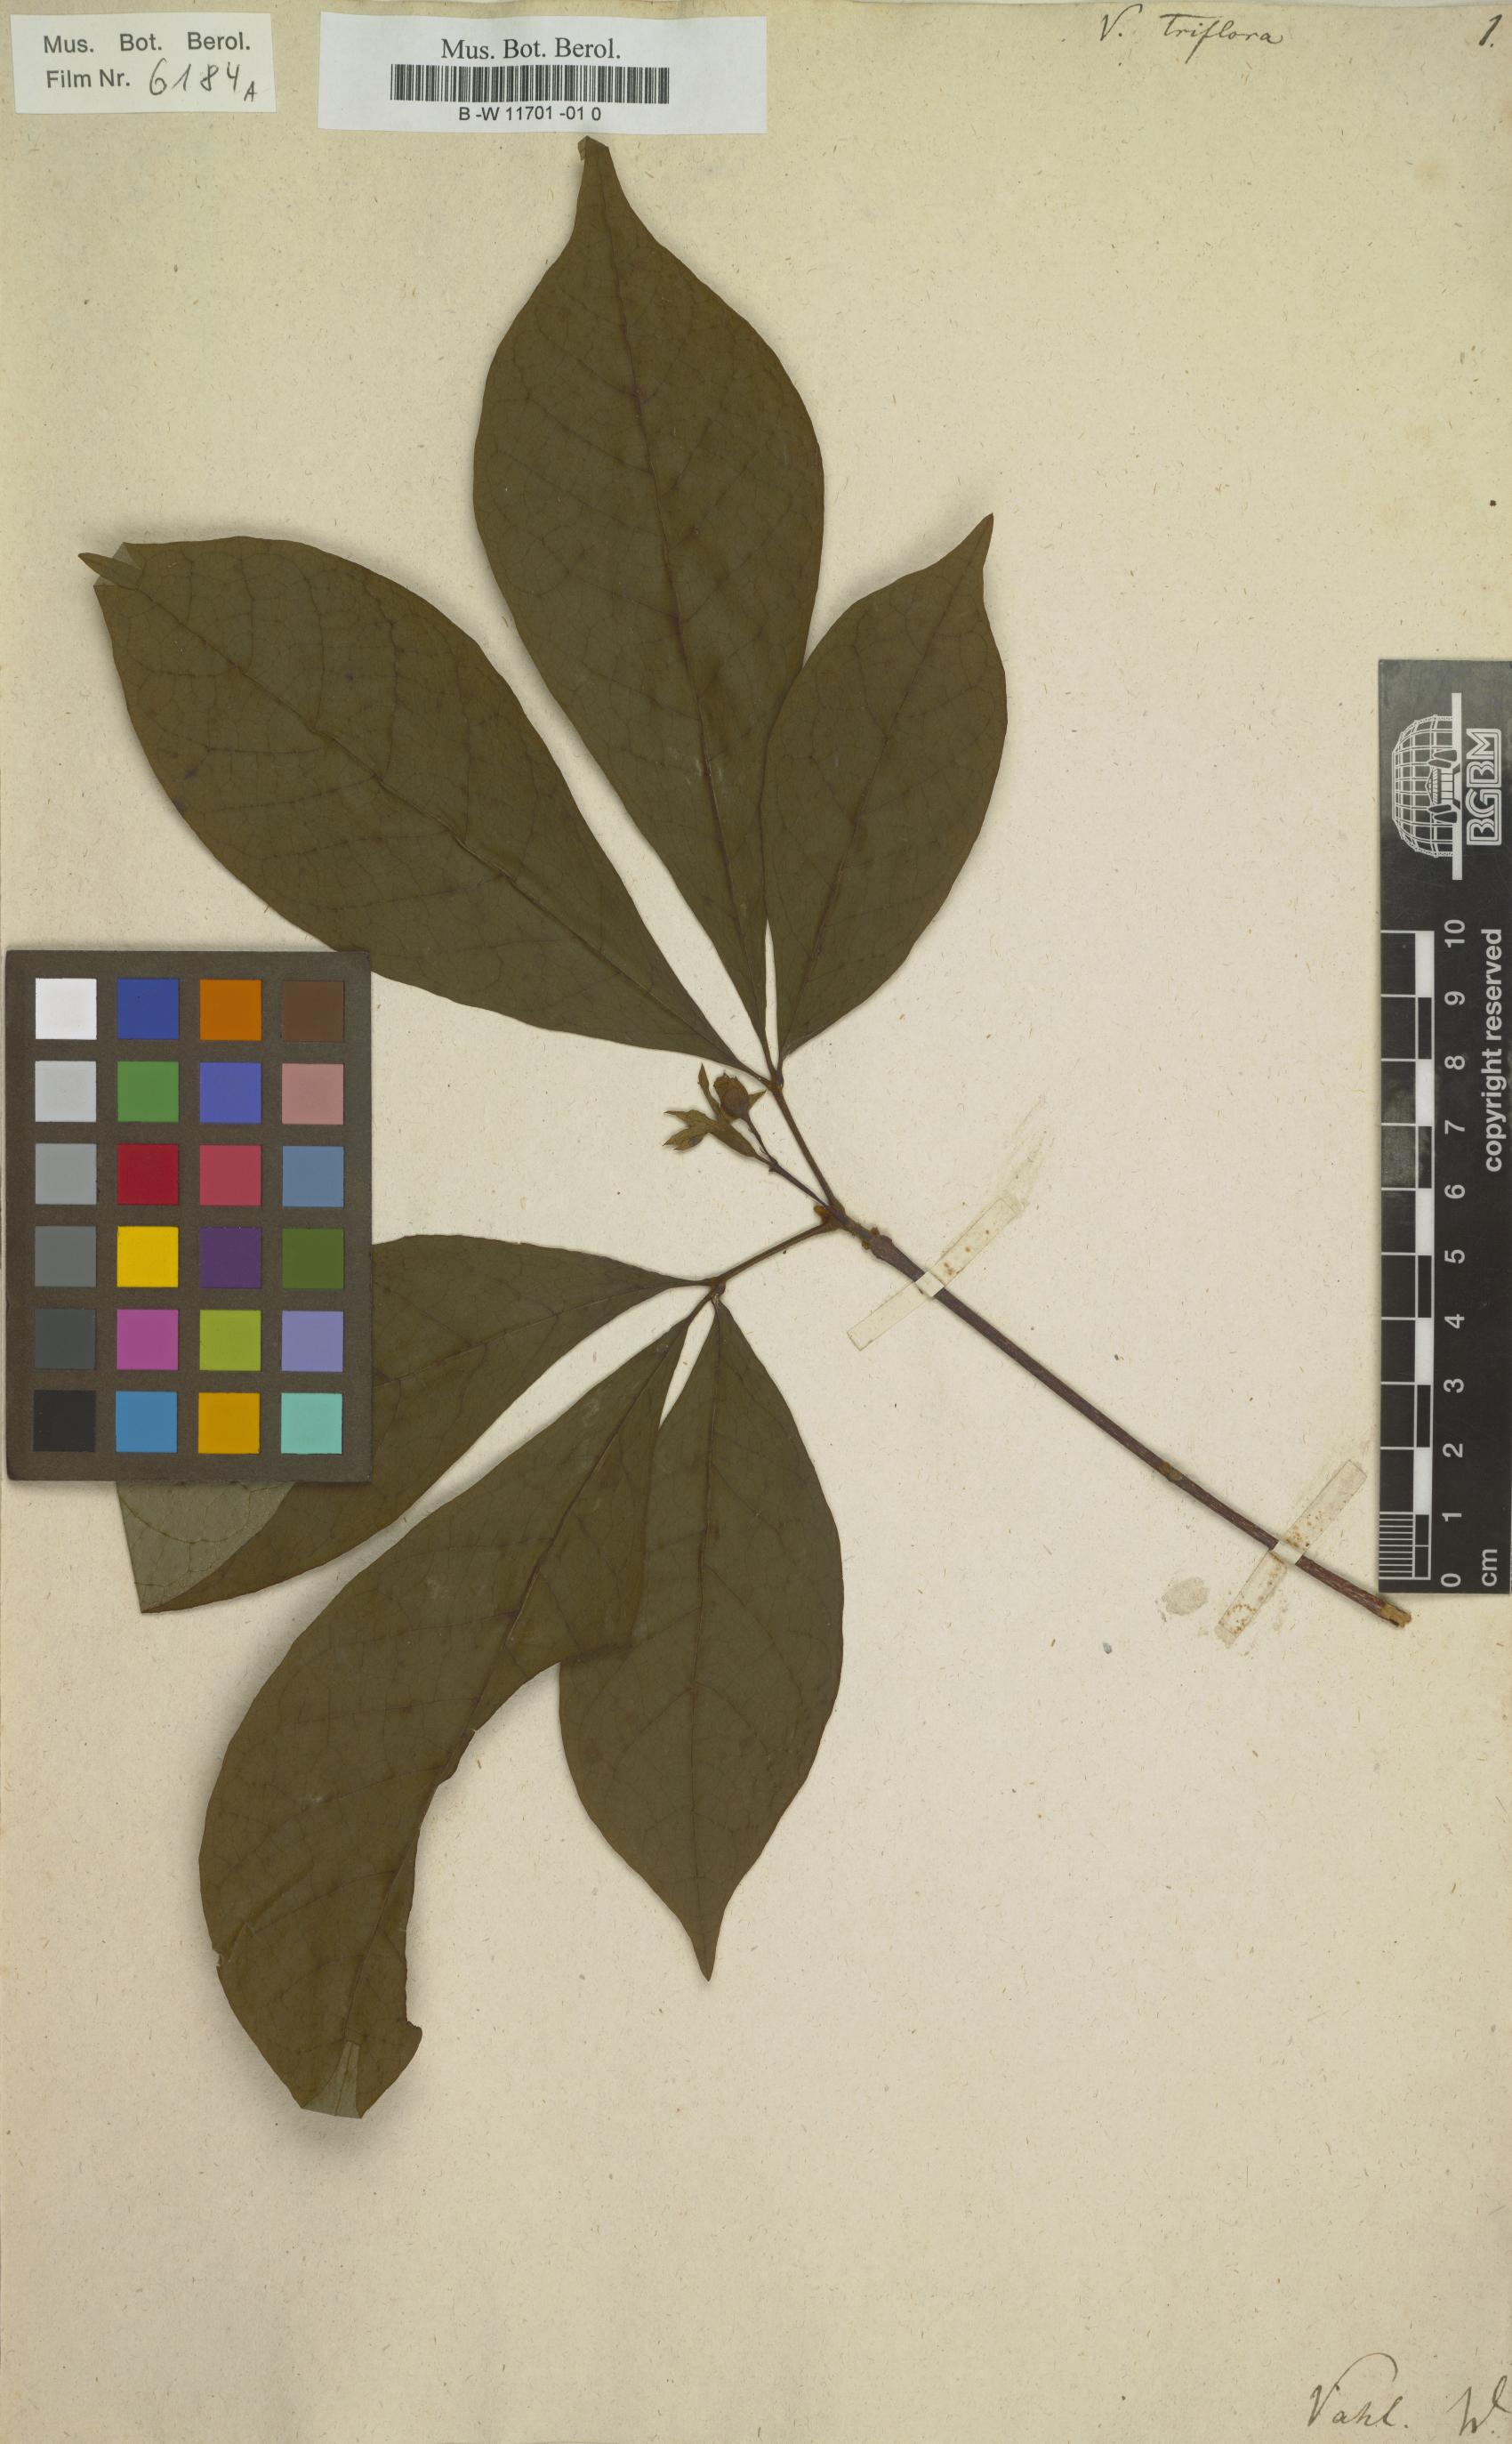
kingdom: Plantae
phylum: Tracheophyta
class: Magnoliopsida
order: Lamiales
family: Lamiaceae
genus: Vitex
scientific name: Vitex triflora
